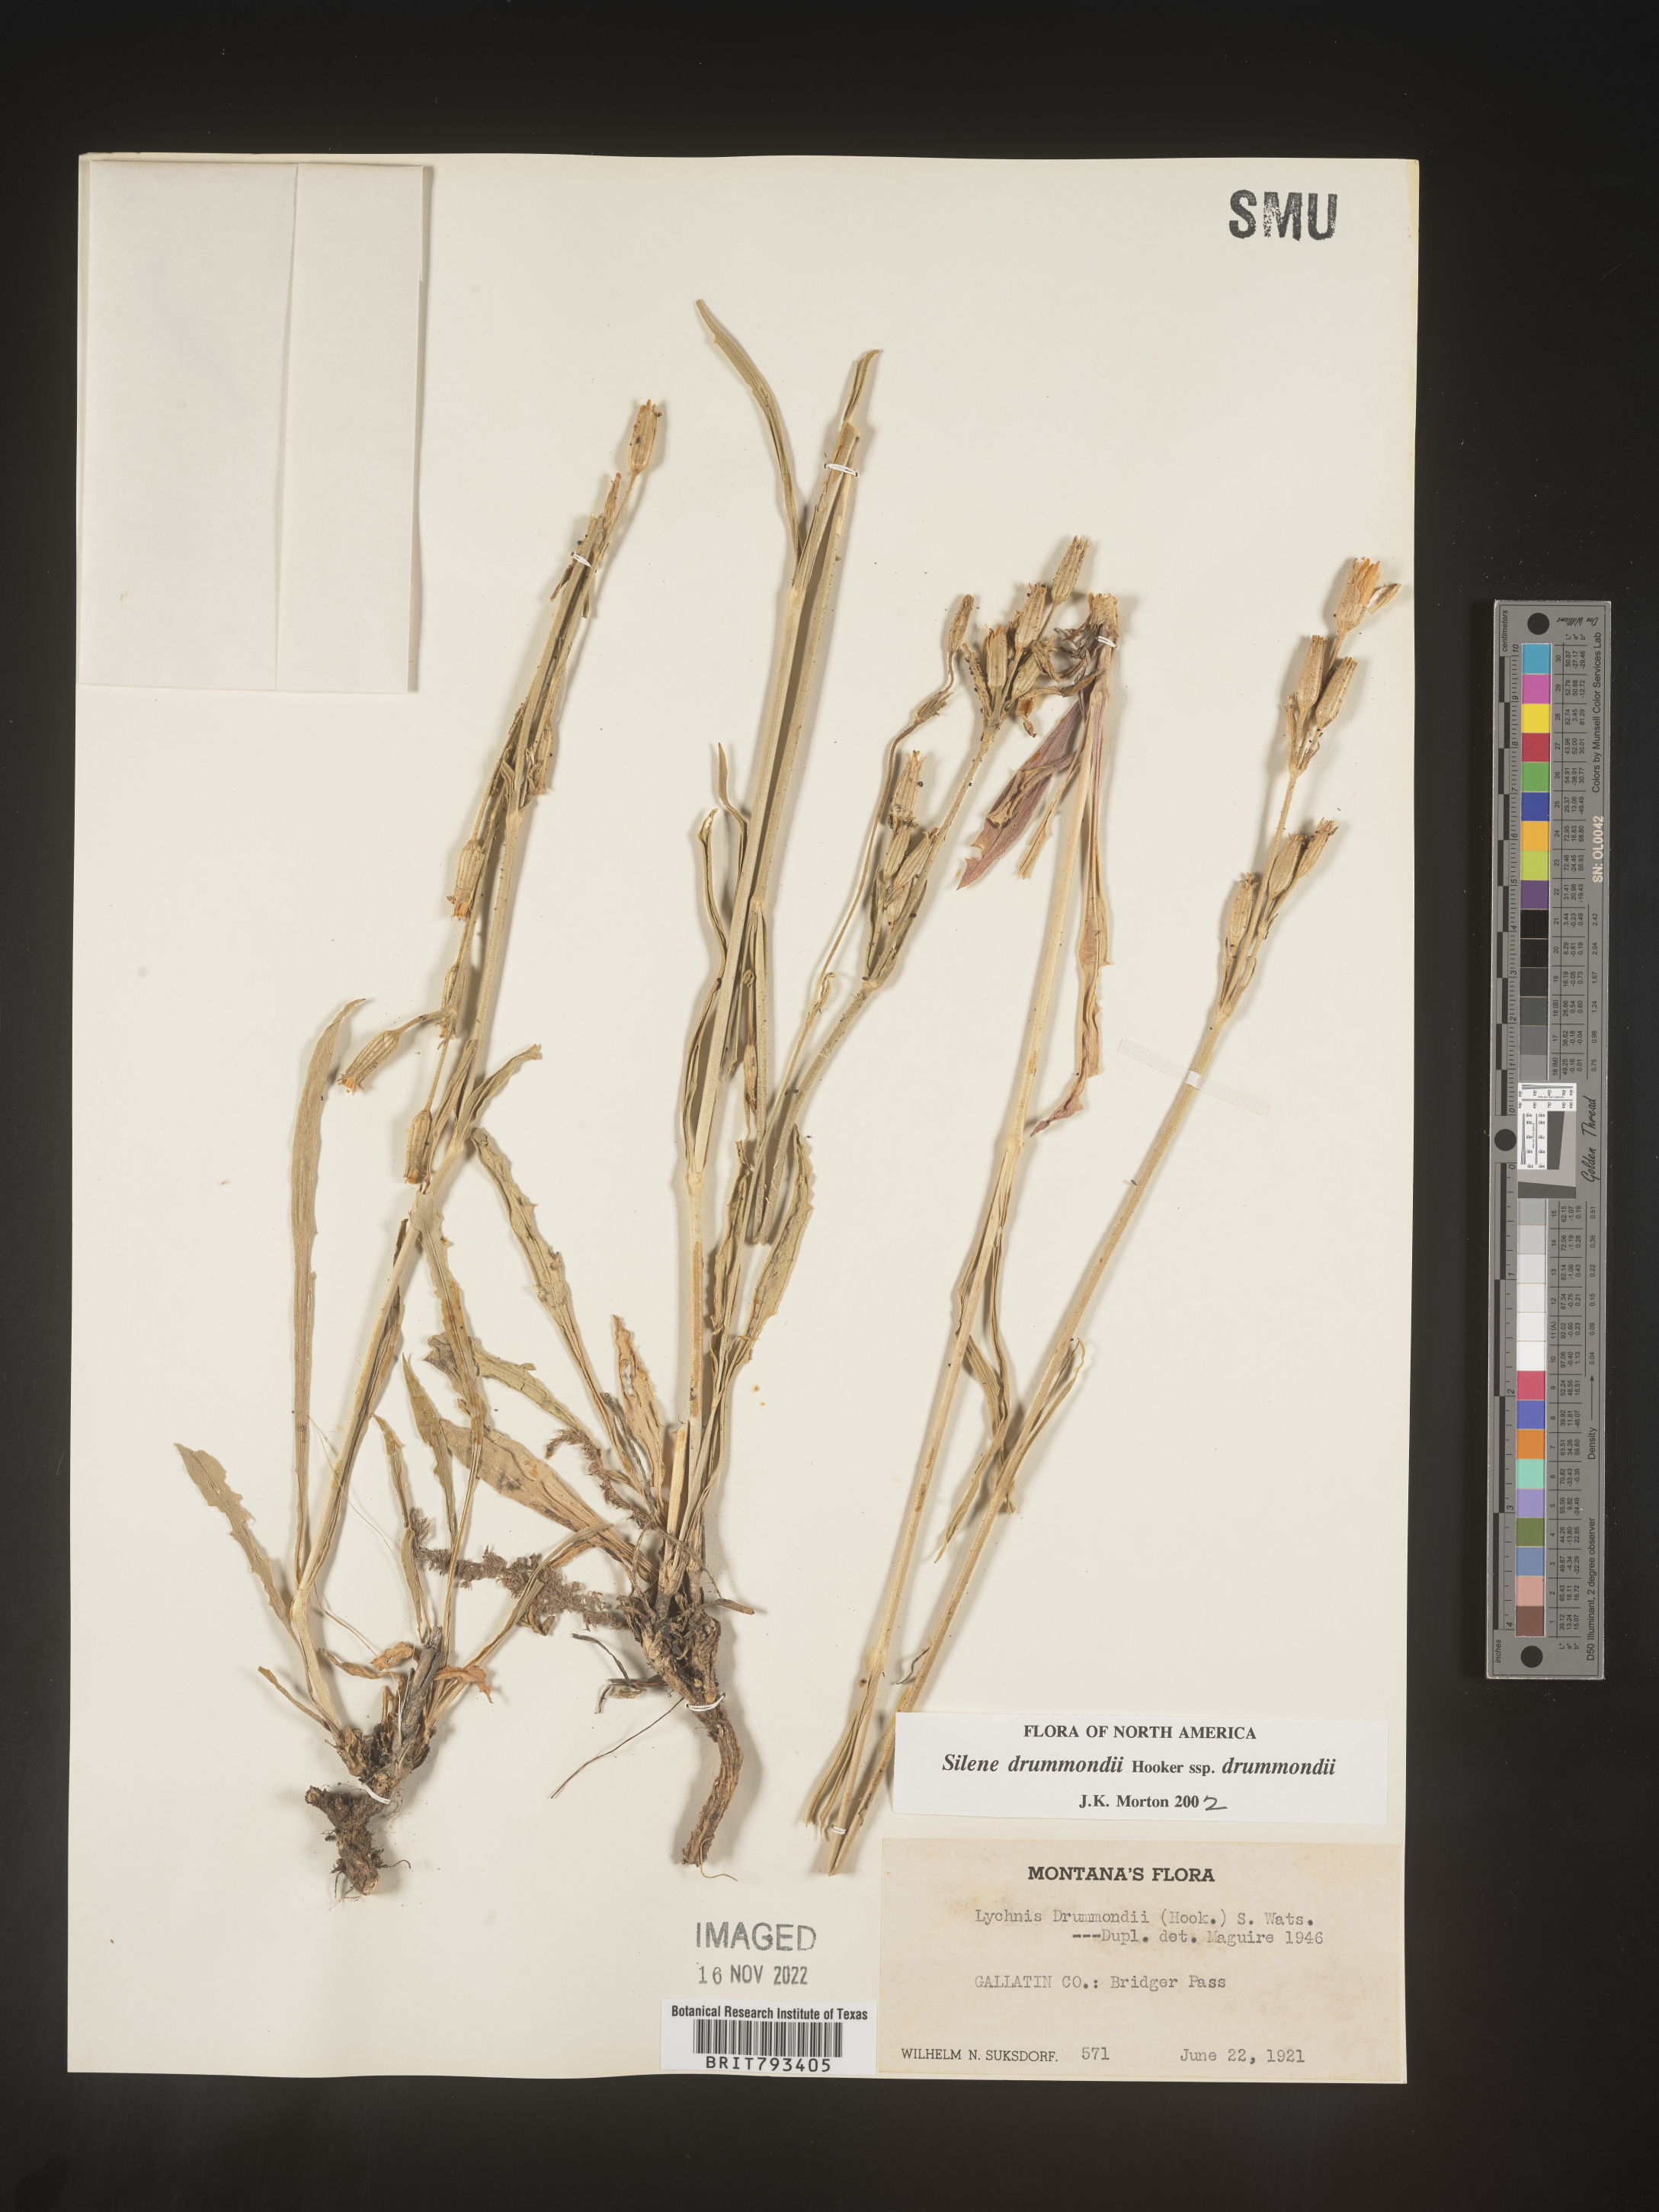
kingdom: Plantae
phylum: Tracheophyta
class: Magnoliopsida
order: Caryophyllales
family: Caryophyllaceae
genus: Silene
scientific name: Silene drummondii
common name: Drummond's catchfly
